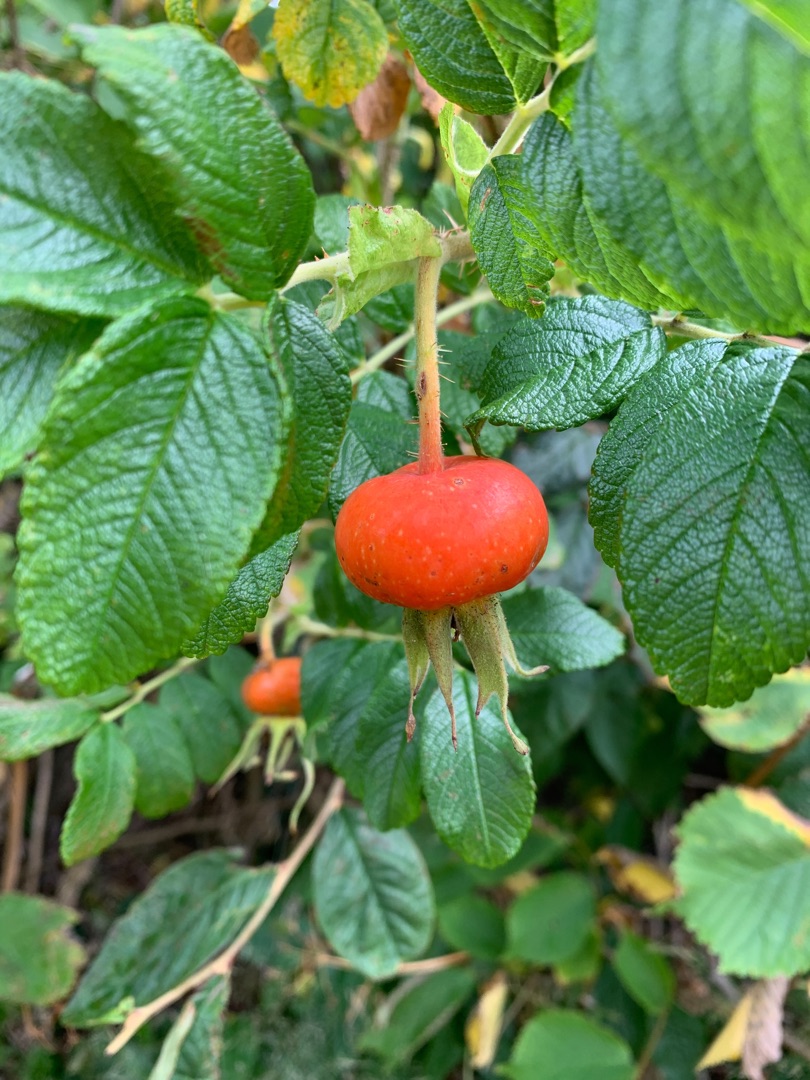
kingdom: Plantae
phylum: Tracheophyta
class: Magnoliopsida
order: Rosales
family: Rosaceae
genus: Rosa
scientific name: Rosa rugosa
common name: Rynket rose
